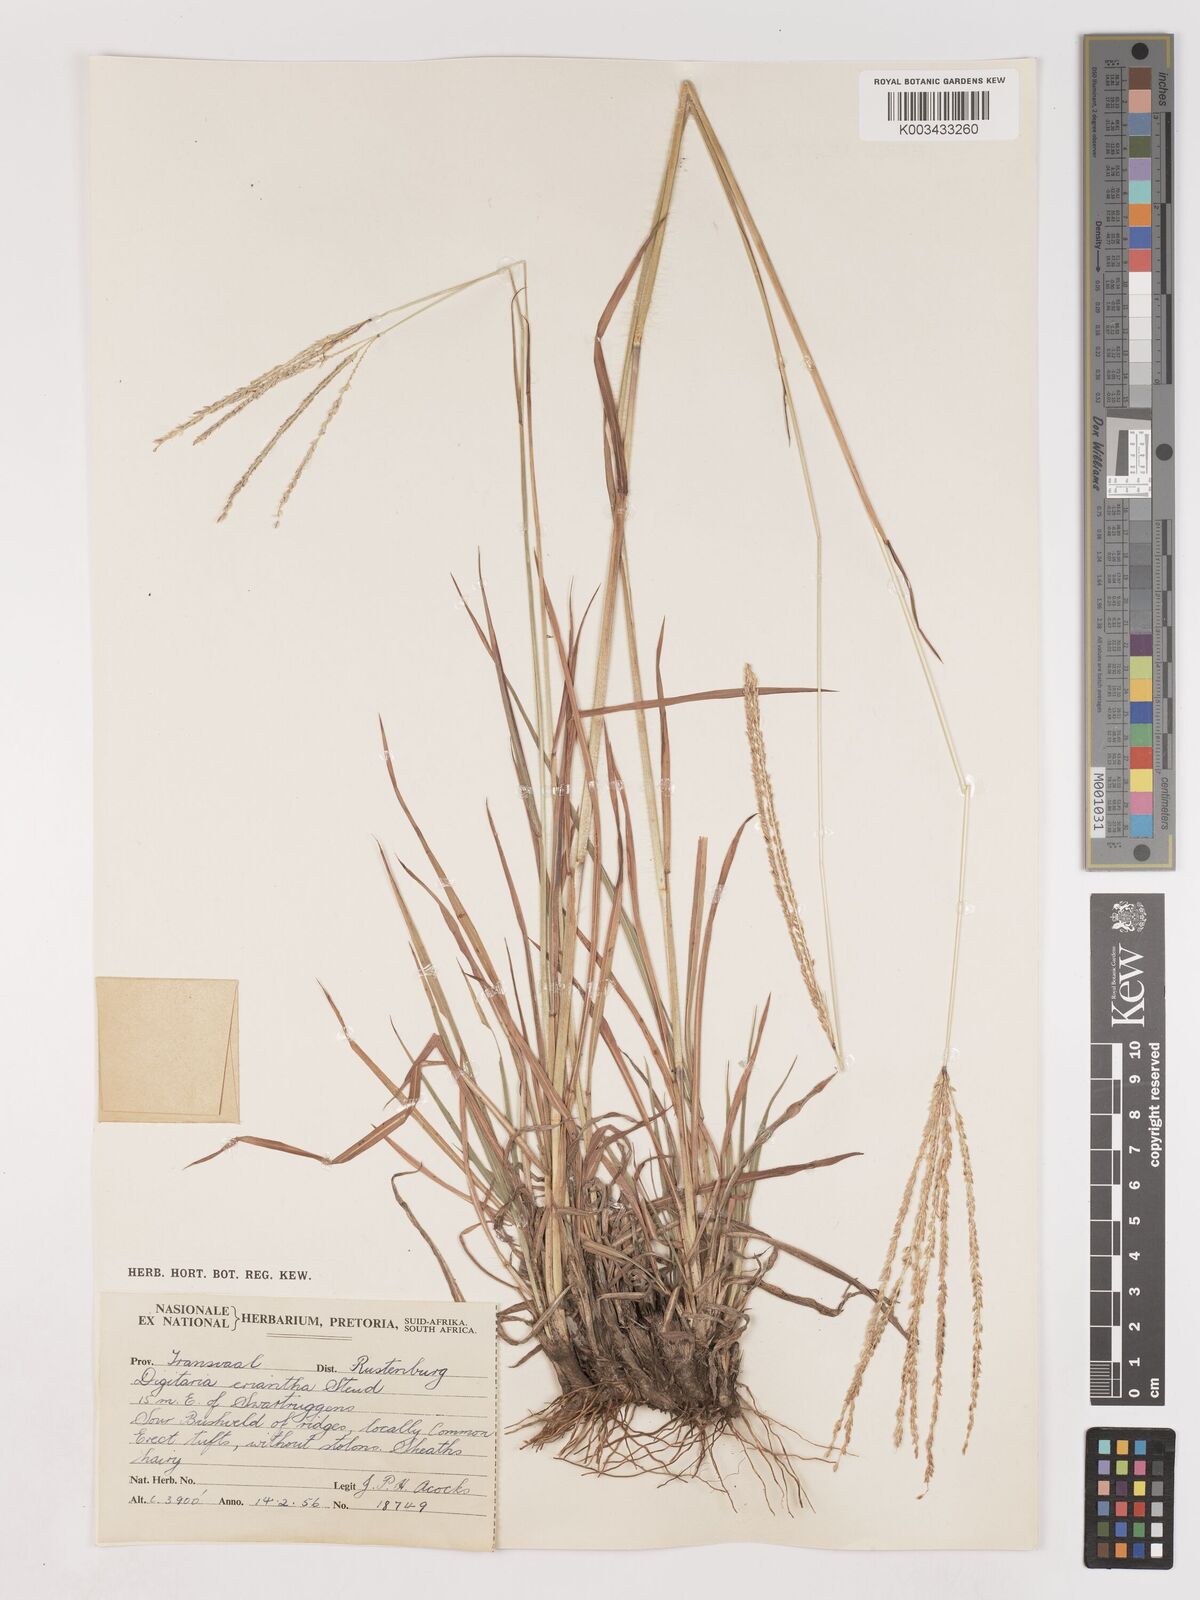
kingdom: Plantae
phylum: Tracheophyta
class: Liliopsida
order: Poales
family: Poaceae
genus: Digitaria
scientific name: Digitaria eriantha
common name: Digitgrass
